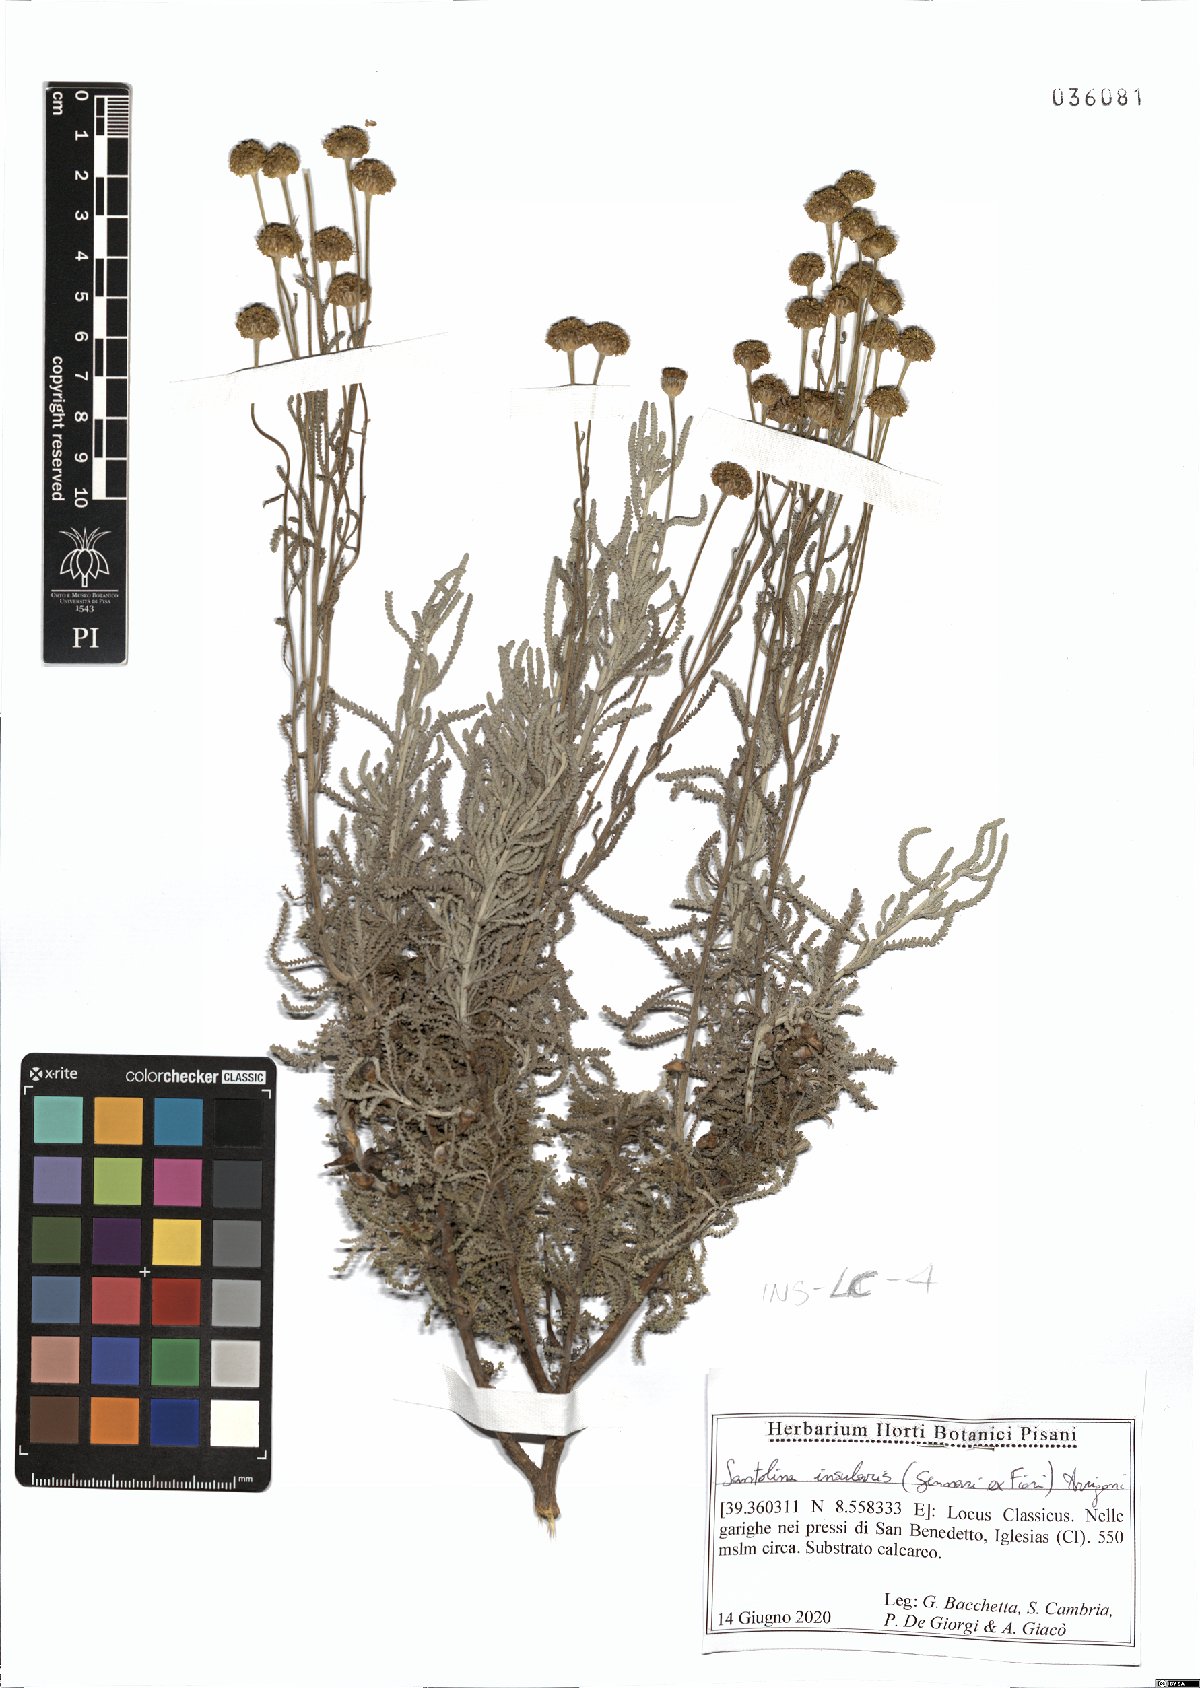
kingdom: Plantae
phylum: Tracheophyta
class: Magnoliopsida
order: Asterales
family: Asteraceae
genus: Santolina
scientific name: Santolina insularis
